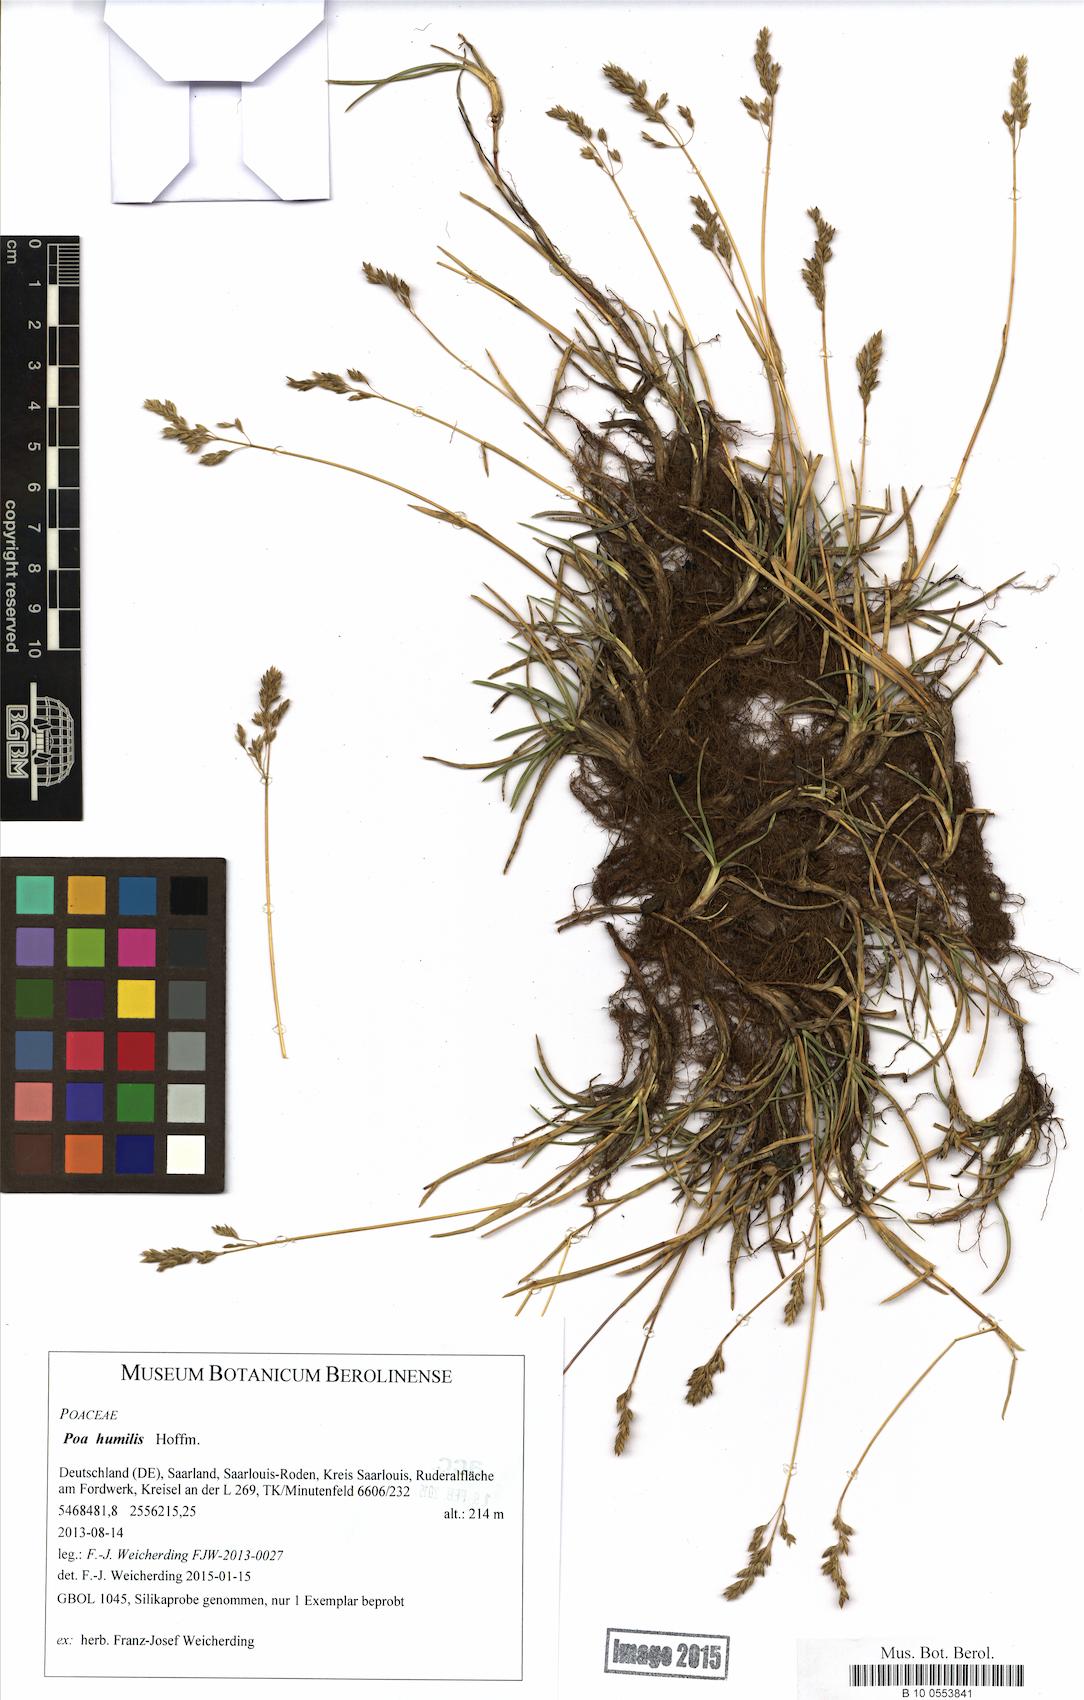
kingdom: Plantae
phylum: Tracheophyta
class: Liliopsida
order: Poales
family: Poaceae
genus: Poa
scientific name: Poa humilis
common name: Spreading meadow-grass
